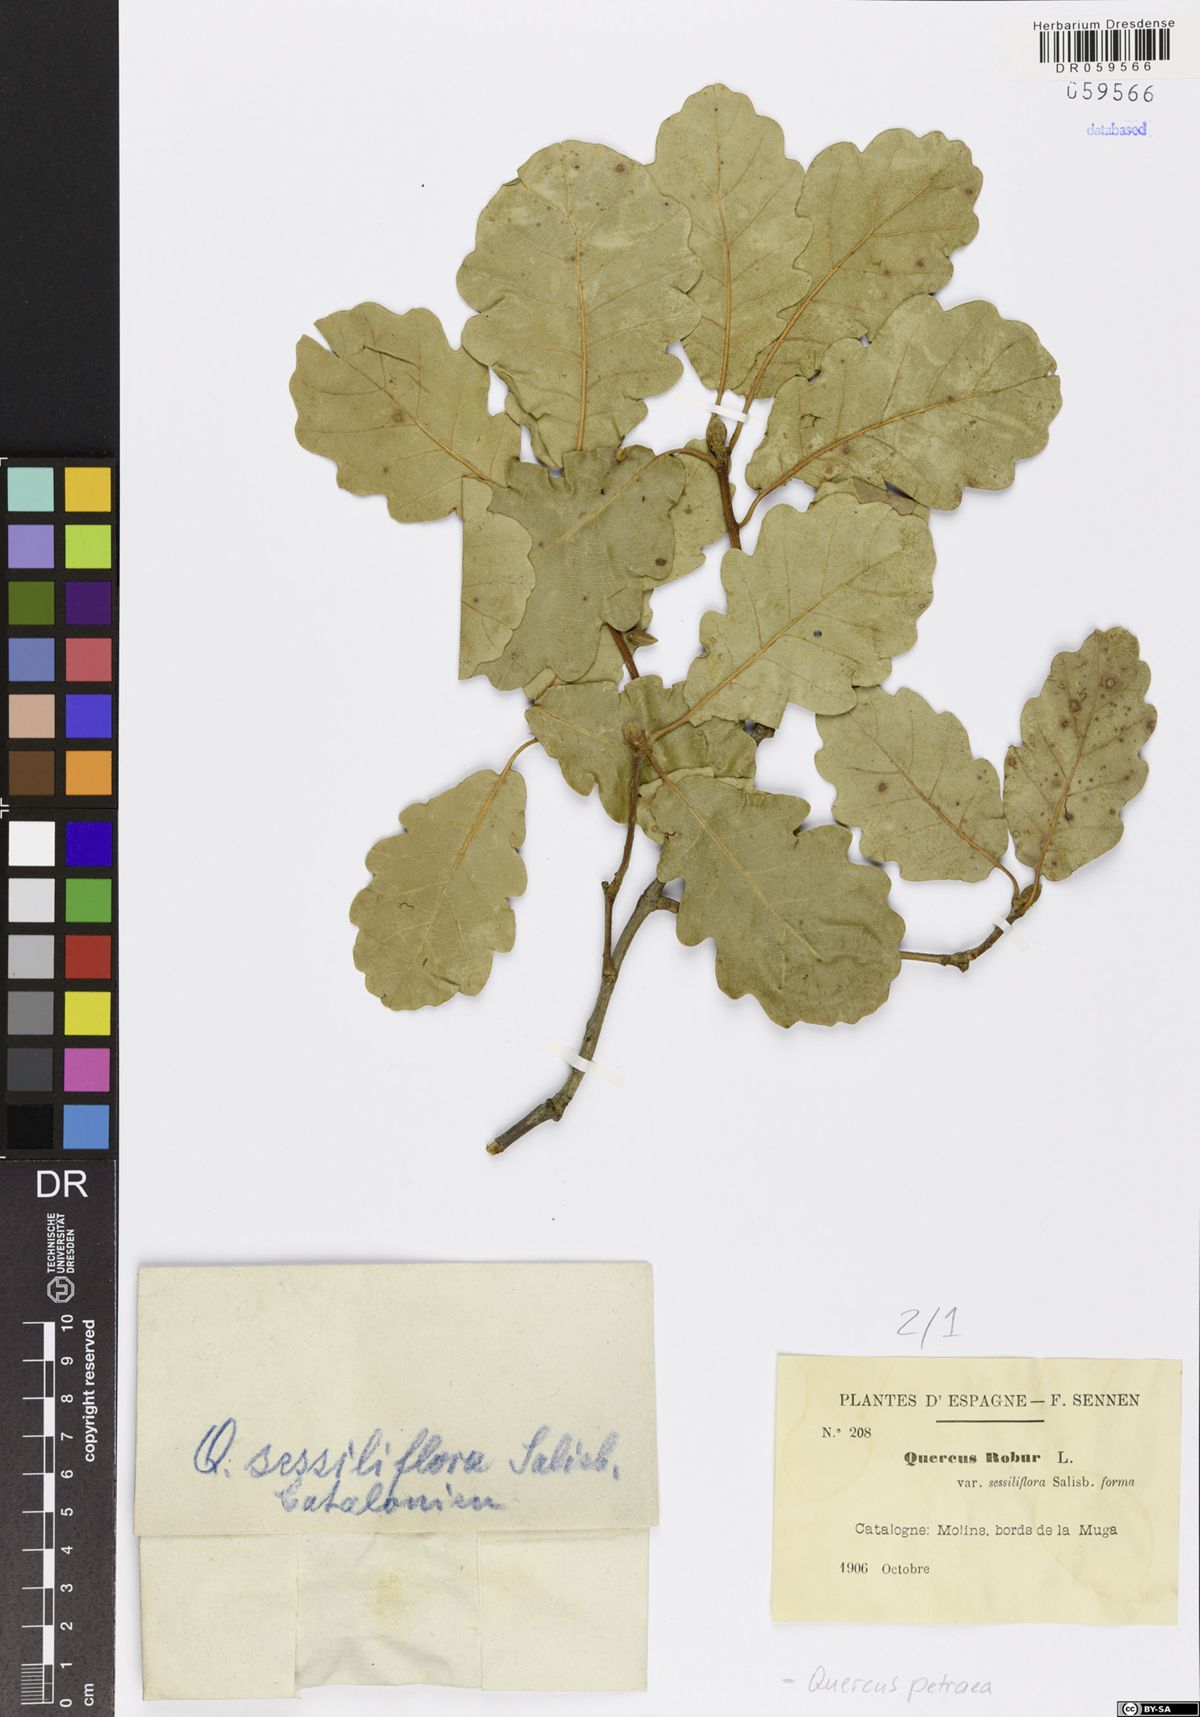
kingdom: Plantae
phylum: Tracheophyta
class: Magnoliopsida
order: Fagales
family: Fagaceae
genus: Quercus
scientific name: Quercus petraea
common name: Sessile oak
